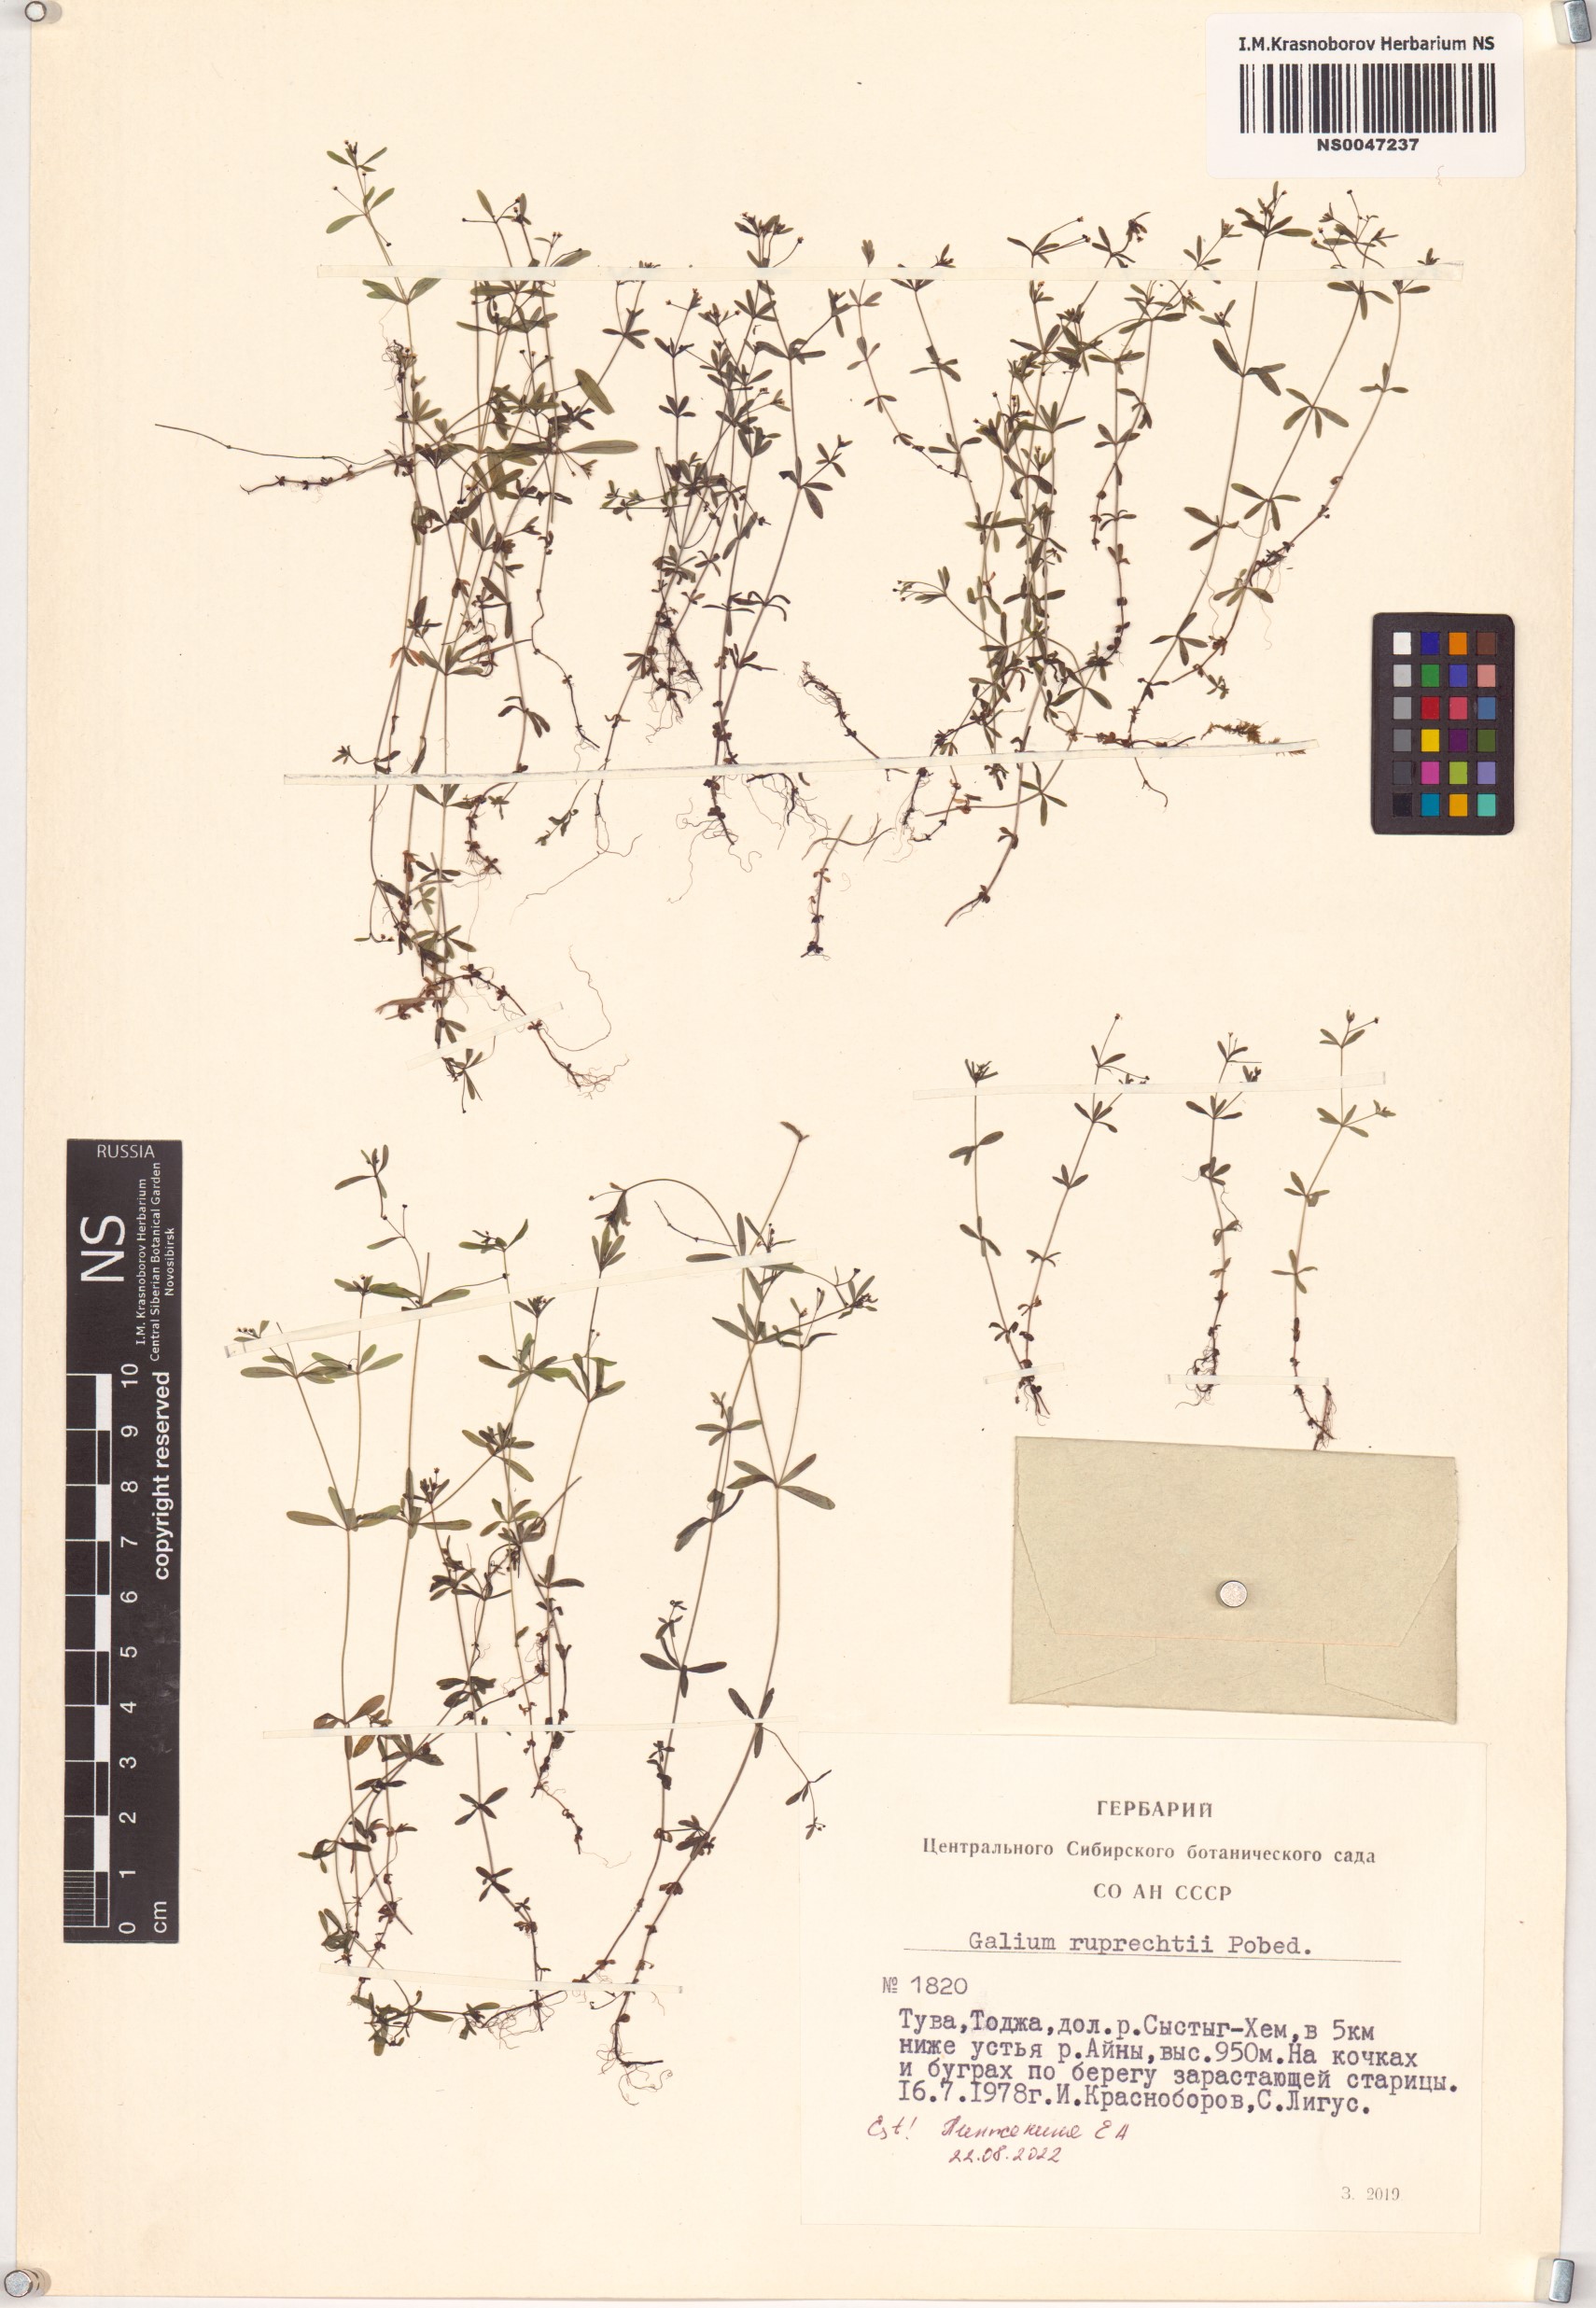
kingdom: Plantae
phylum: Tracheophyta
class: Magnoliopsida
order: Gentianales
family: Rubiaceae
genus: Galium
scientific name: Galium trifidum
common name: Small bedstraw
